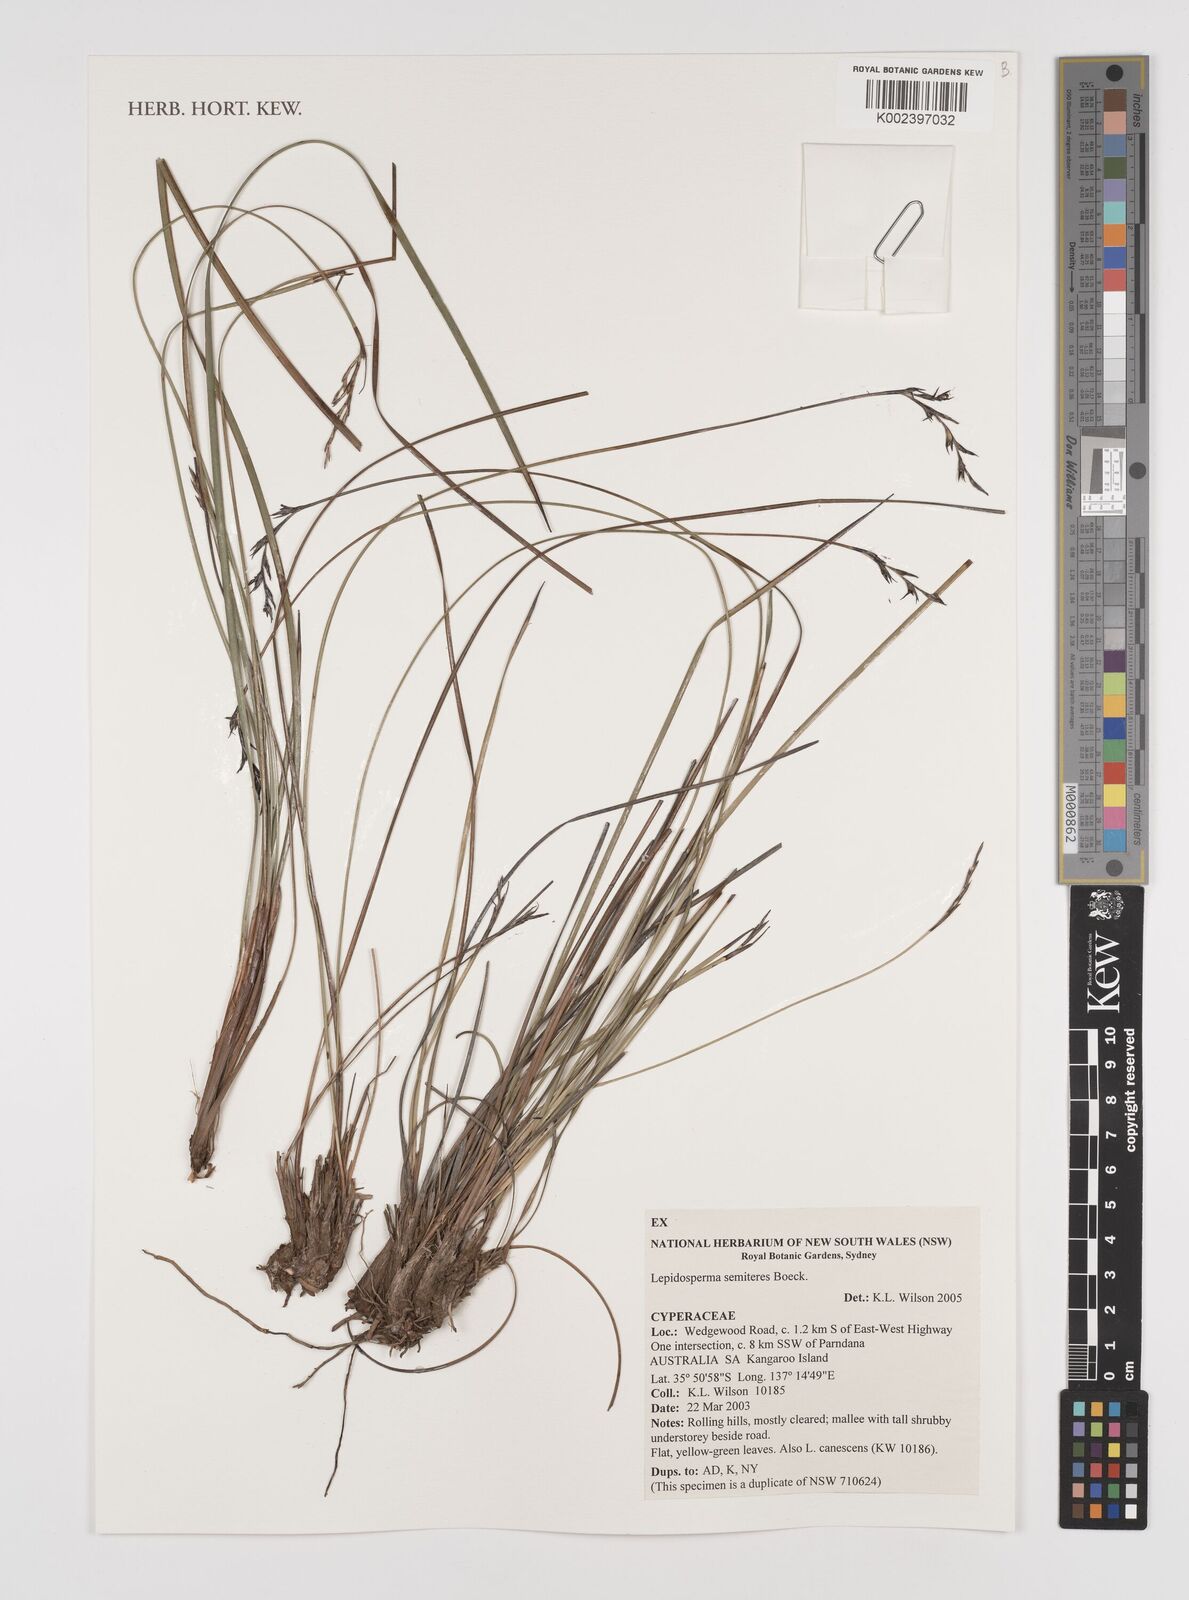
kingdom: Plantae
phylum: Tracheophyta
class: Liliopsida
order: Poales
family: Cyperaceae
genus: Lepidosperma
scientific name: Lepidosperma semiteres
